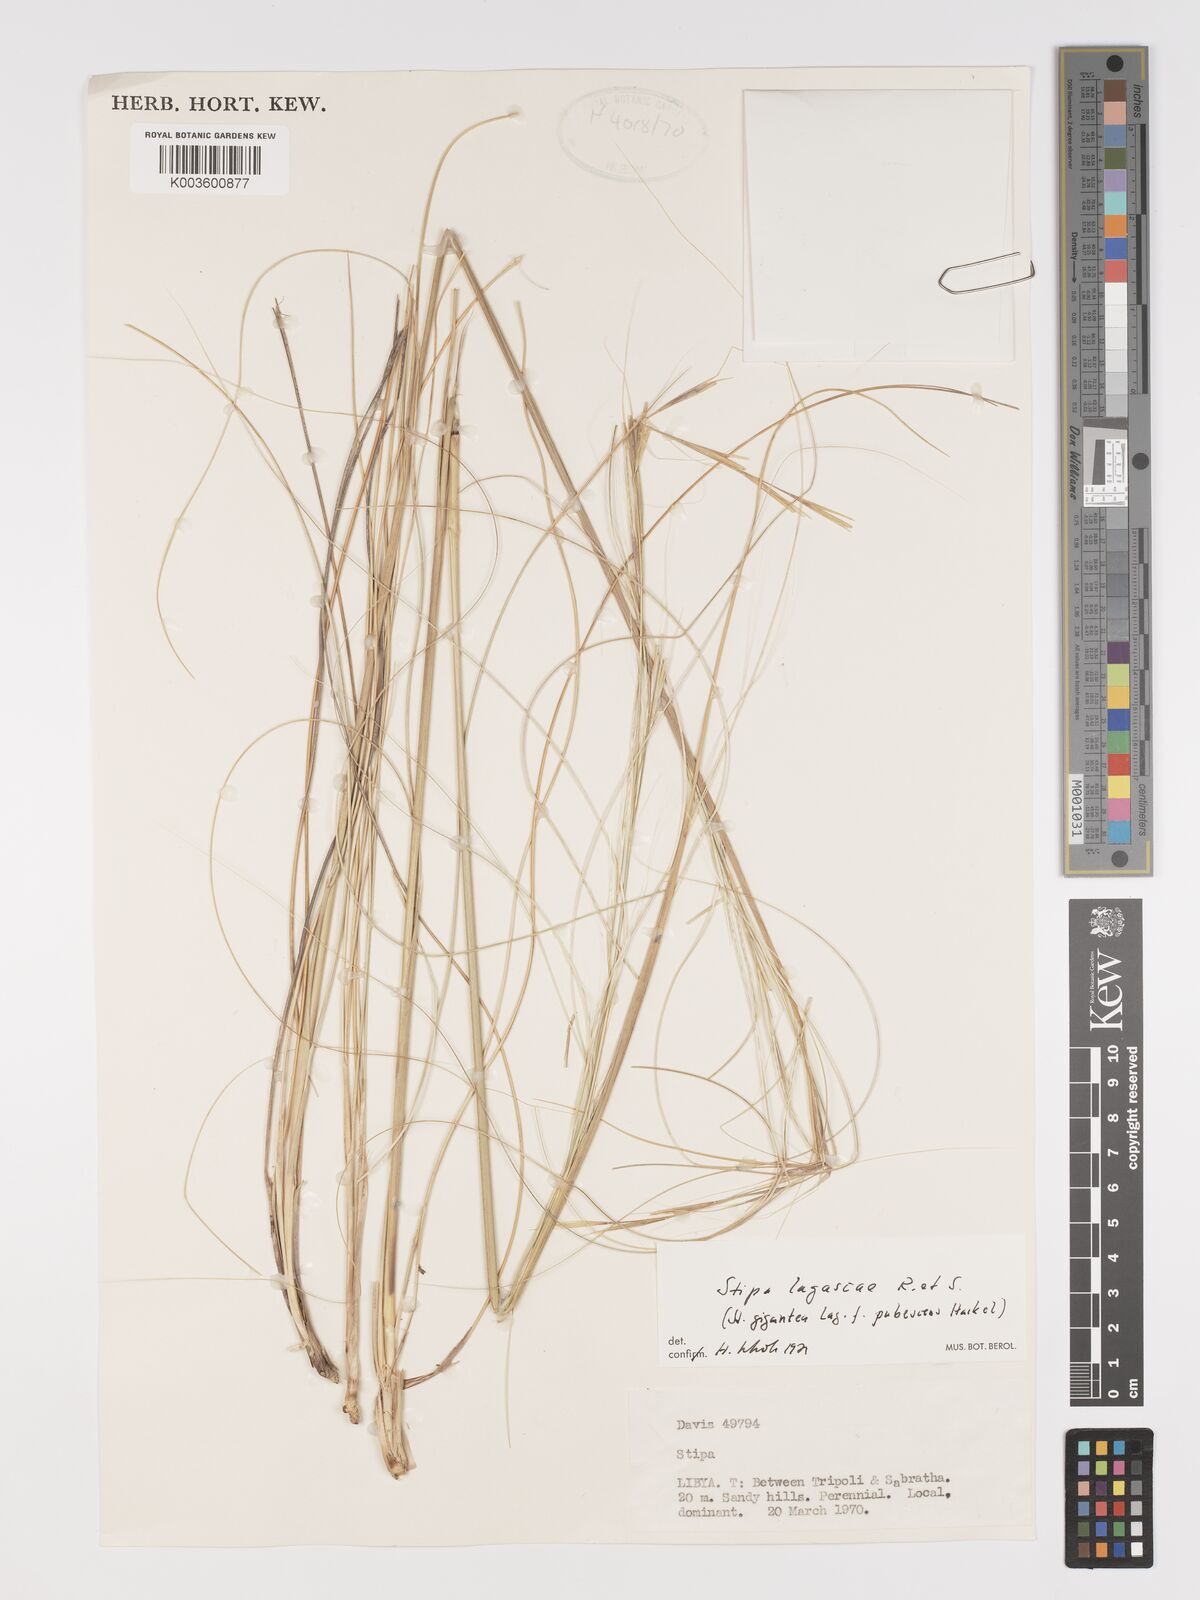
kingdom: Plantae
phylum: Tracheophyta
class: Liliopsida
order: Poales
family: Poaceae
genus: Stipa
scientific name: Stipa lagascae
